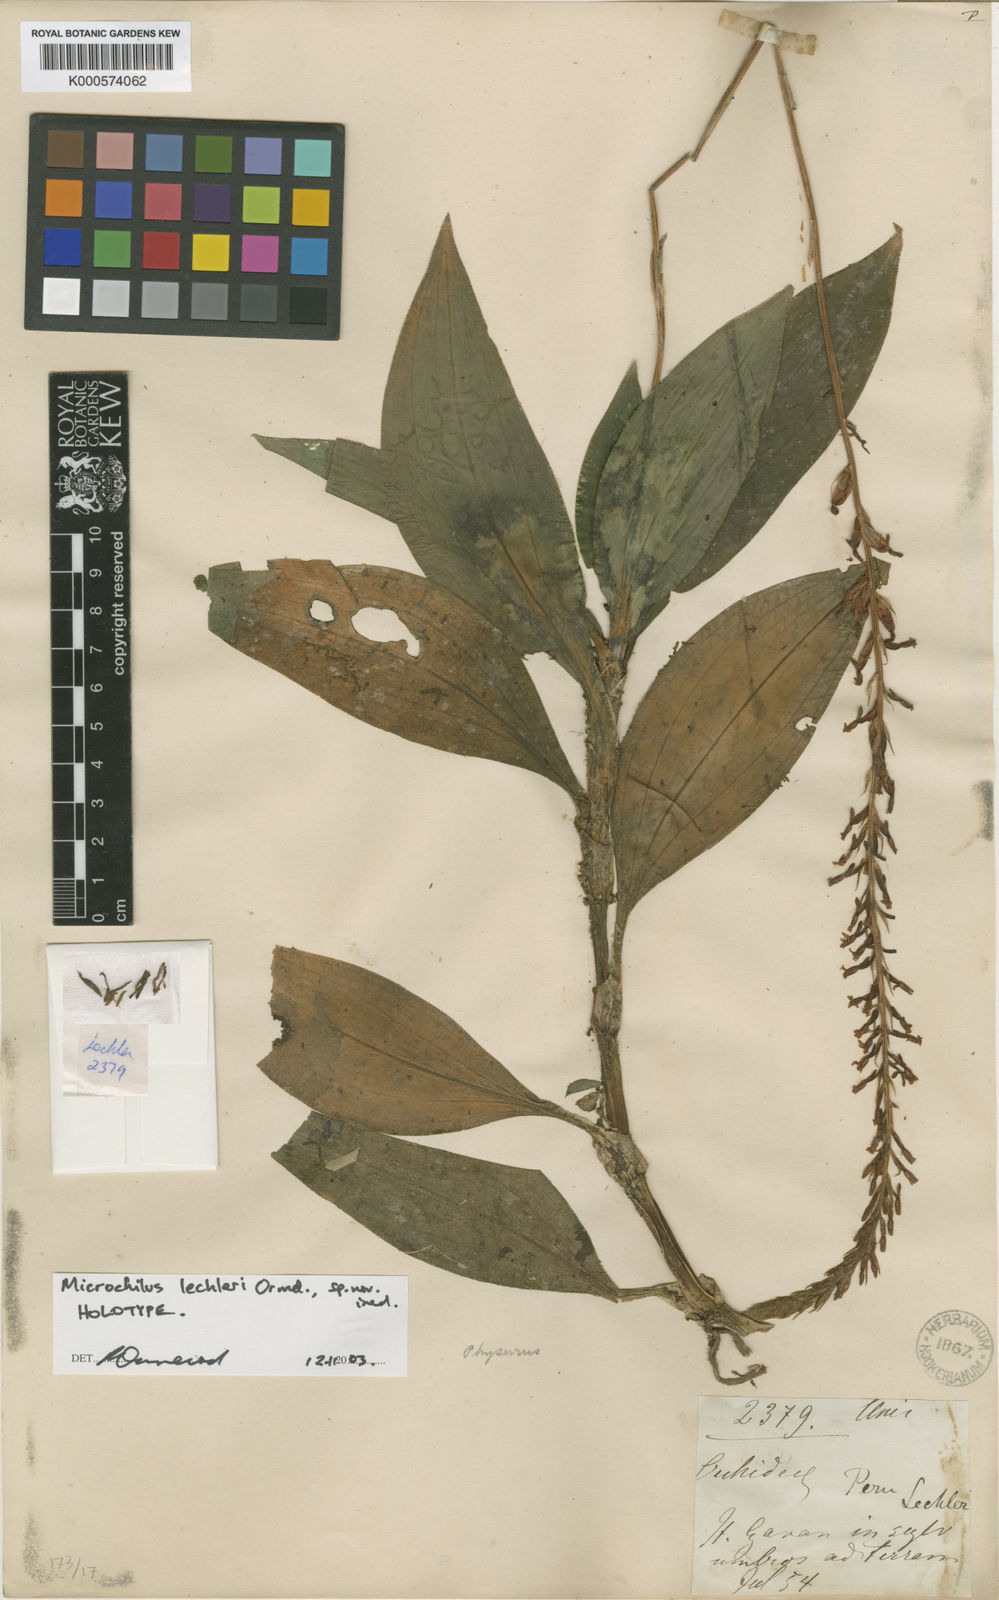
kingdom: Plantae
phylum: Tracheophyta
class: Liliopsida
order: Asparagales
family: Orchidaceae
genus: Microchilus
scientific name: Microchilus lechleri
